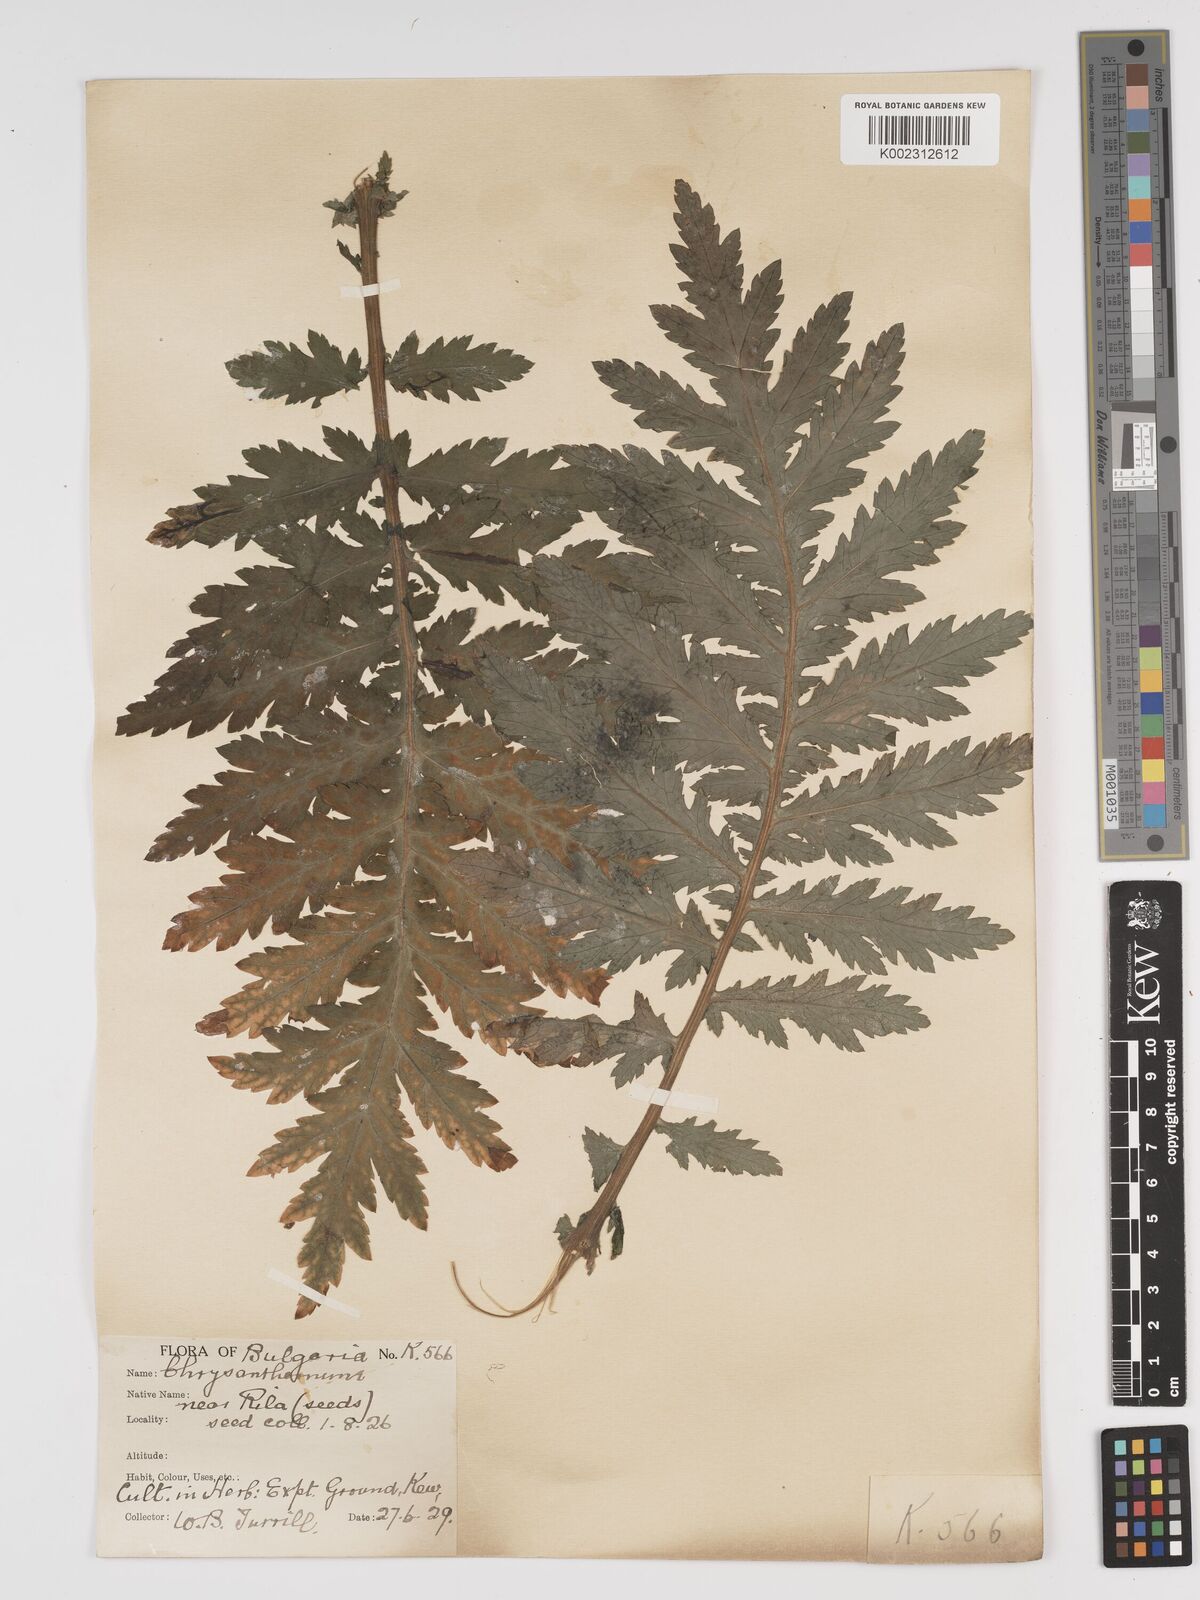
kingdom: Plantae
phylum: Tracheophyta
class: Magnoliopsida
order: Asterales
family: Asteraceae
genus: Tanacetum
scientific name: Tanacetum macrophyllum
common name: Rayed tansy
